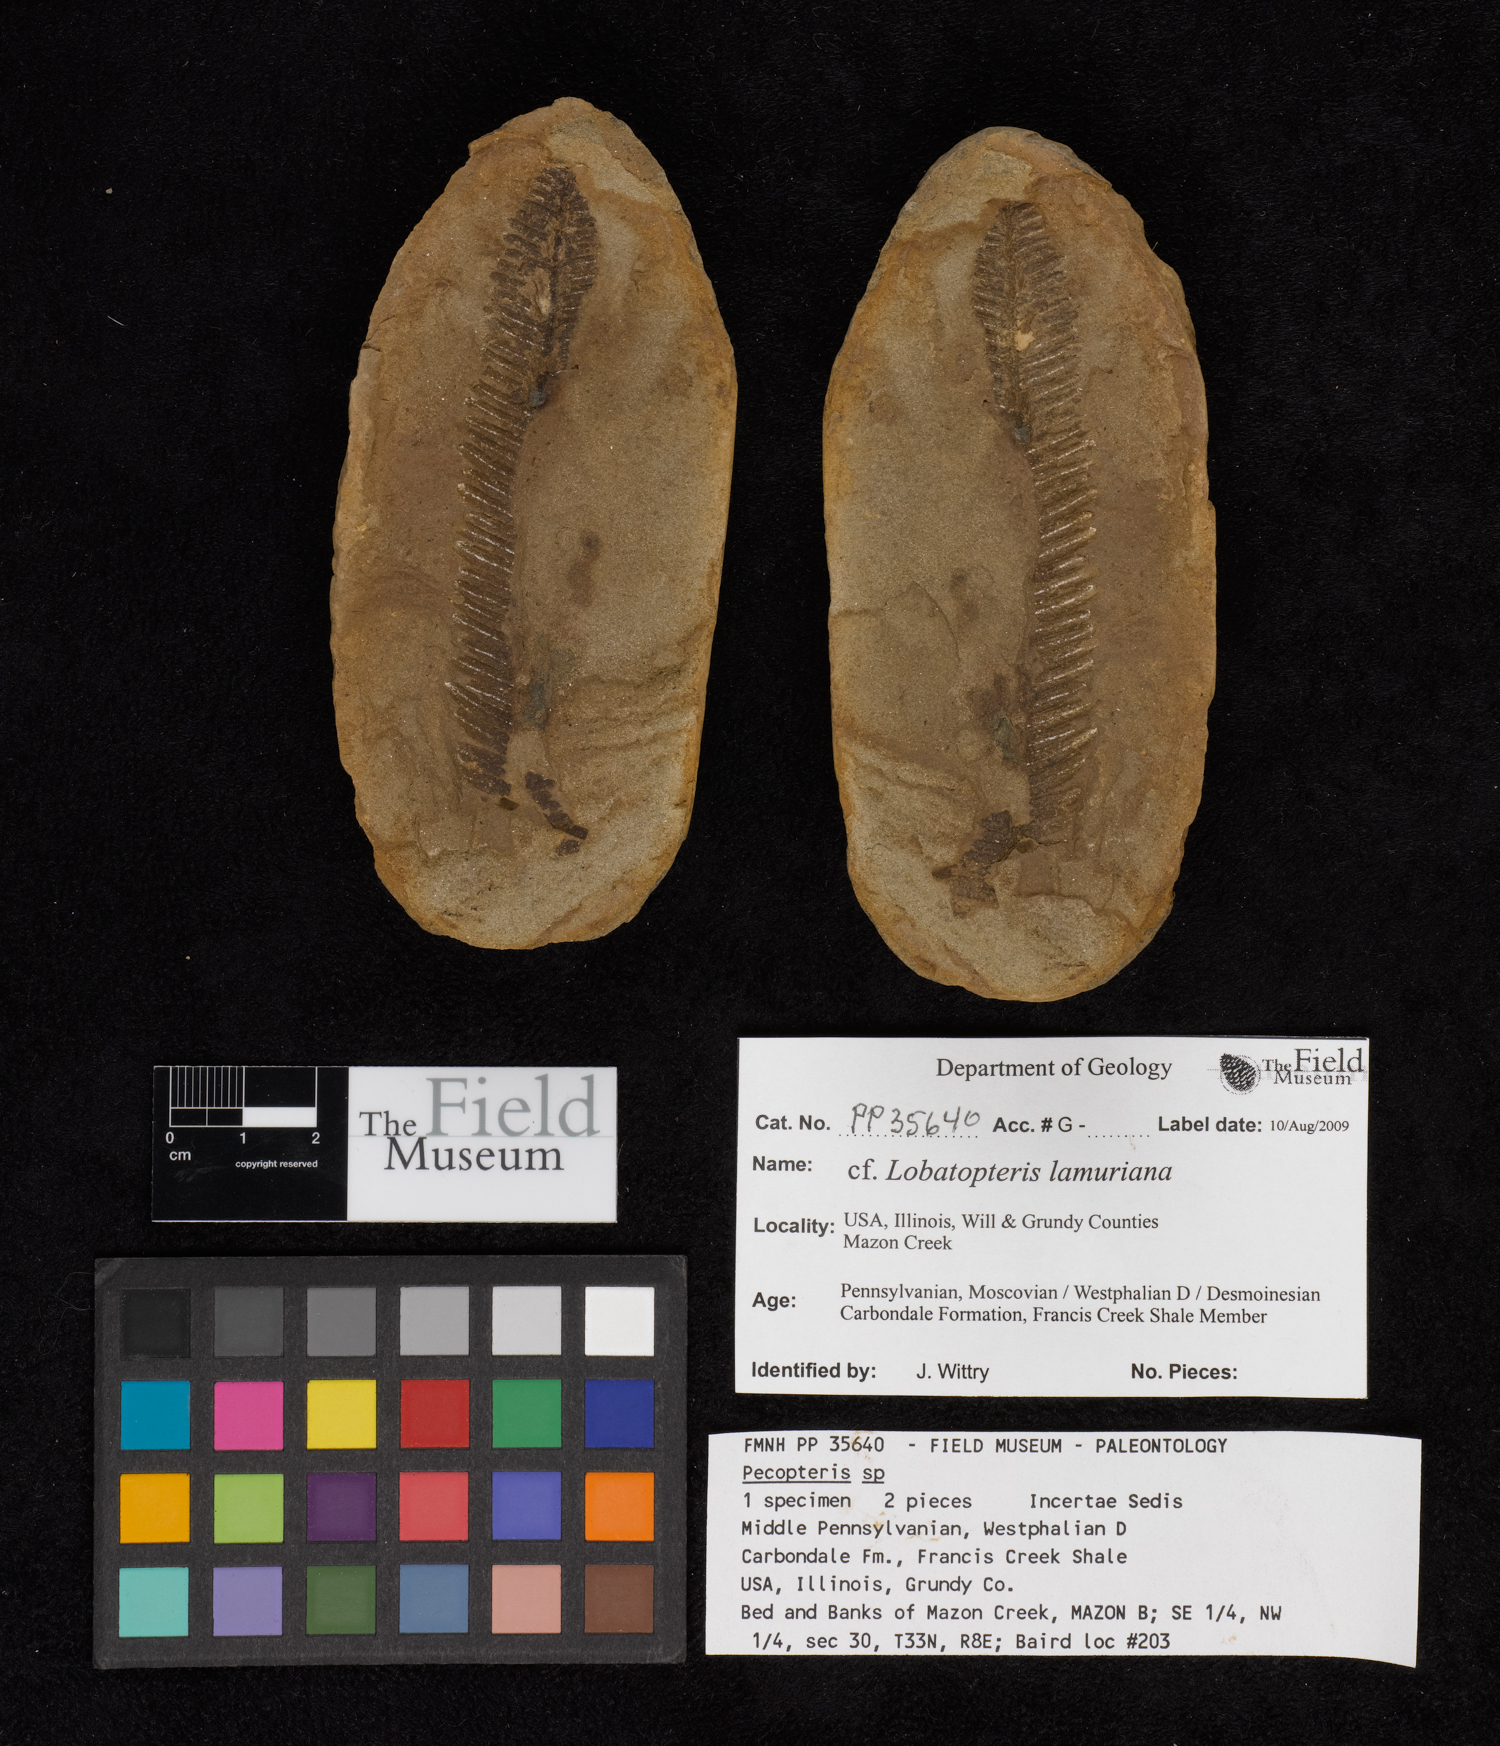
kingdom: Plantae
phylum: Tracheophyta
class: Polypodiopsida
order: Marattiales
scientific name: Marattiales
